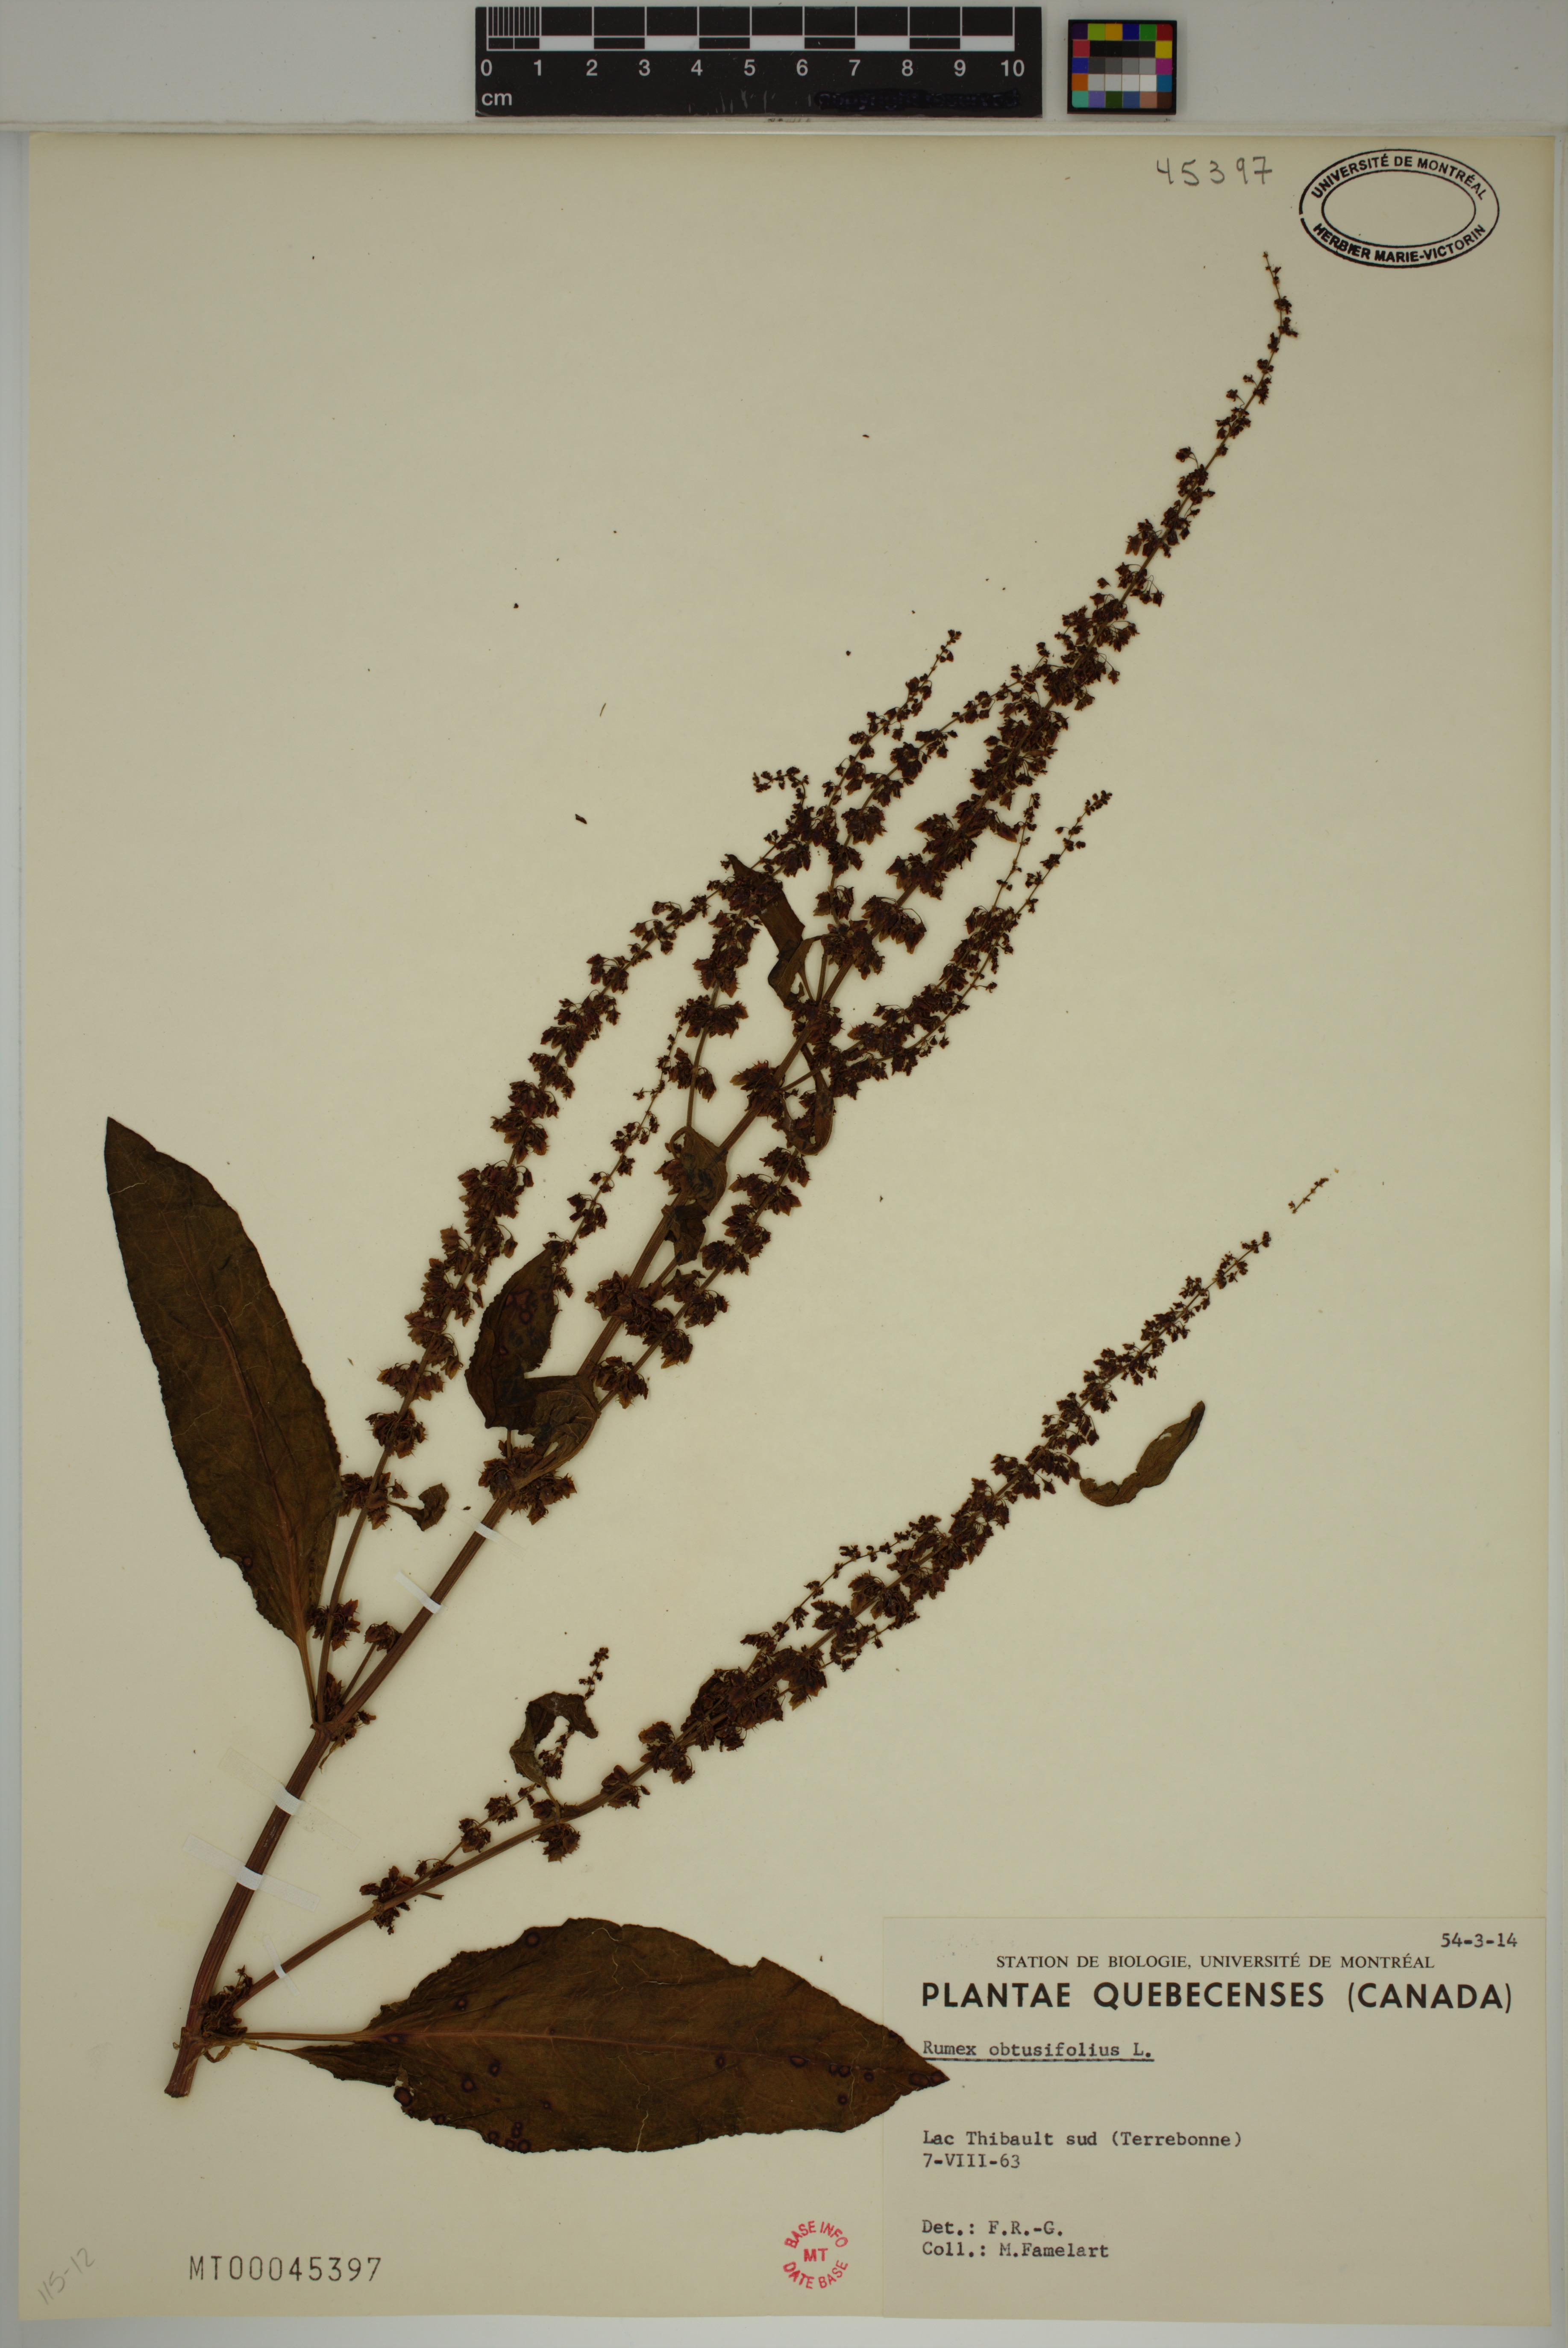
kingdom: Plantae
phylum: Tracheophyta
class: Magnoliopsida
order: Caryophyllales
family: Polygonaceae
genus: Rumex
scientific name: Rumex obtusifolius
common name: Bitter dock
